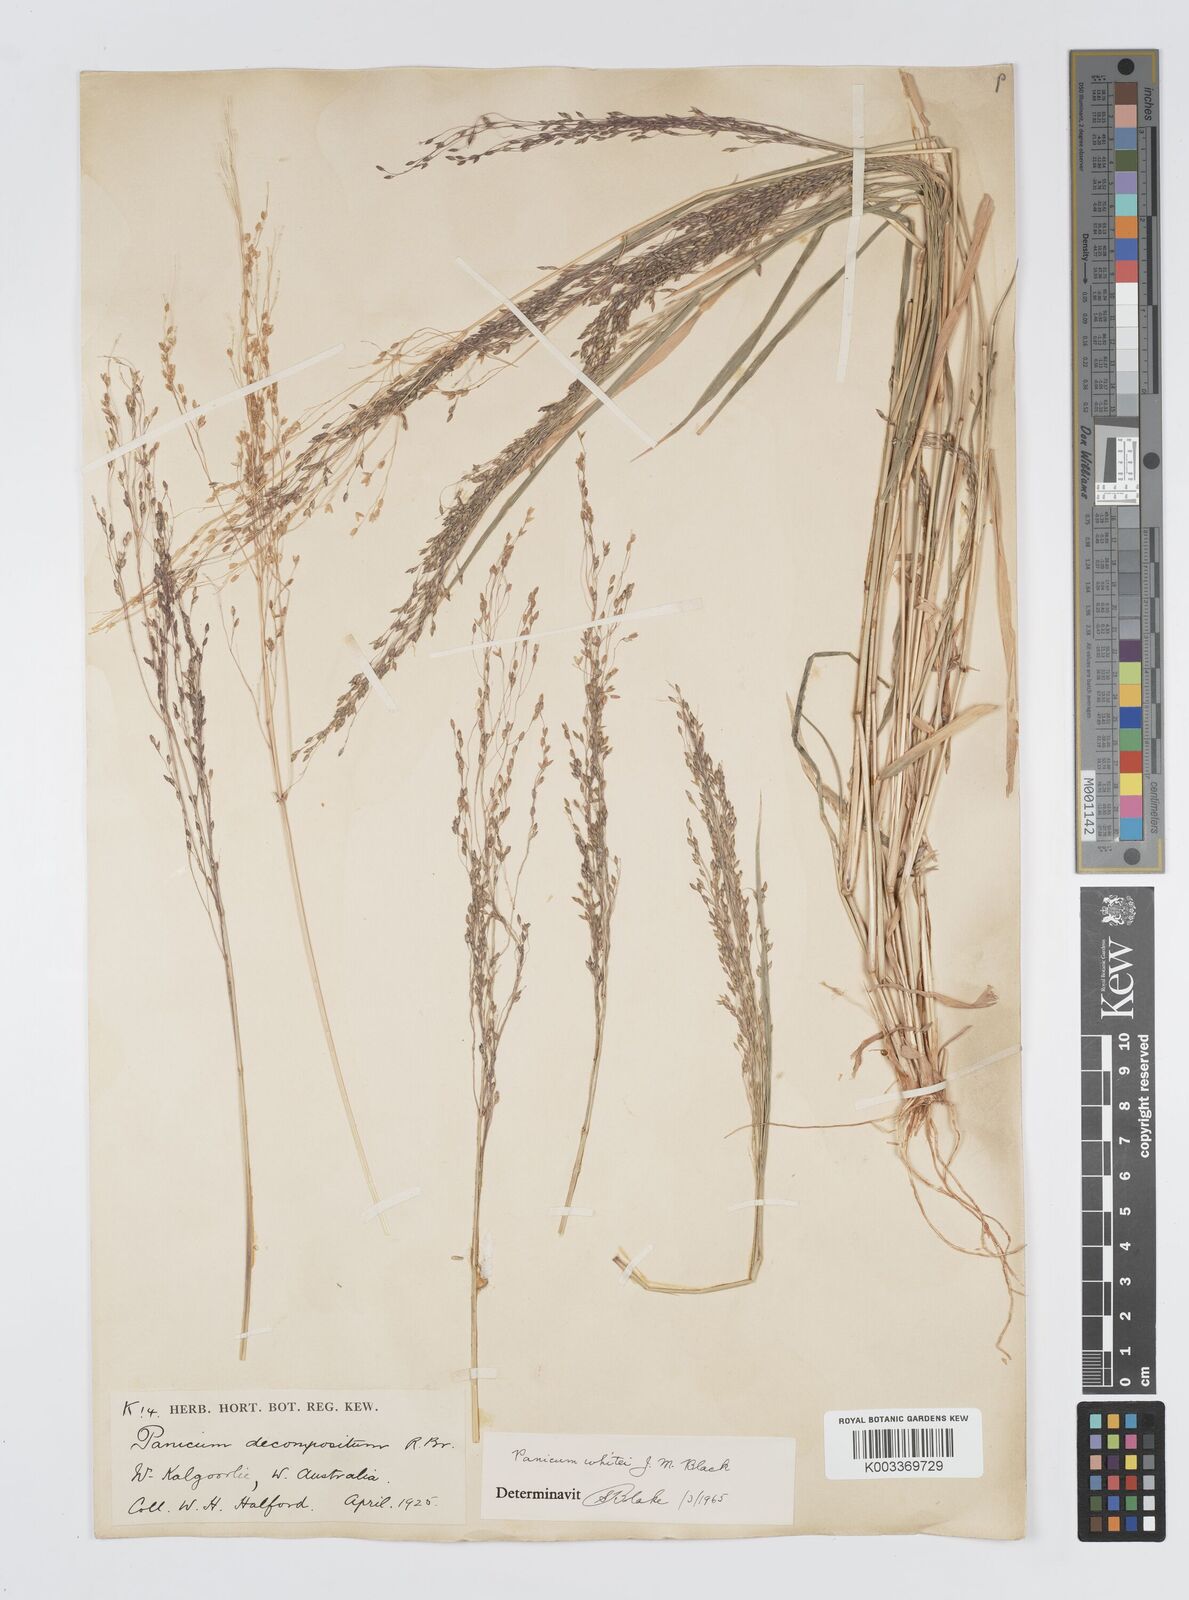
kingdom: Plantae
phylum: Tracheophyta
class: Liliopsida
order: Poales
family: Poaceae
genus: Panicum
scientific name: Panicum laevinode
